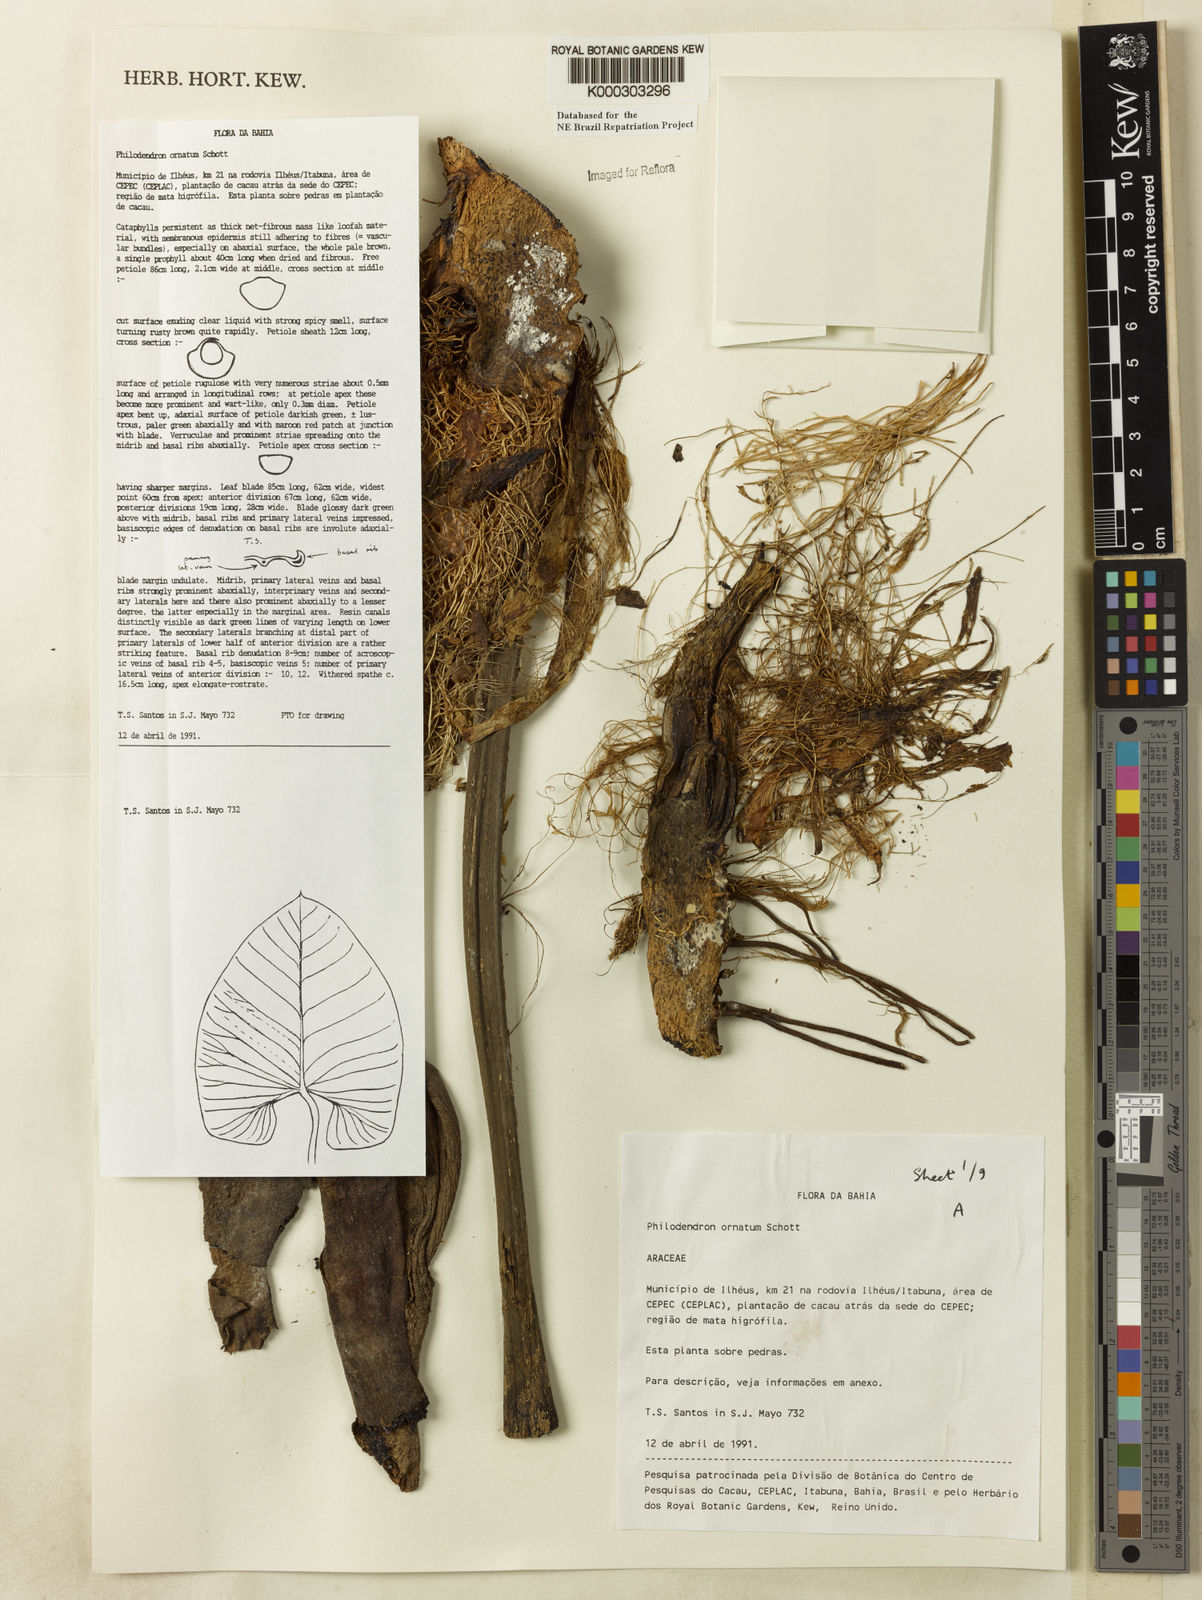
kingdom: Plantae
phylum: Tracheophyta
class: Liliopsida
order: Alismatales
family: Araceae
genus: Philodendron
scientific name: Philodendron ornatum
